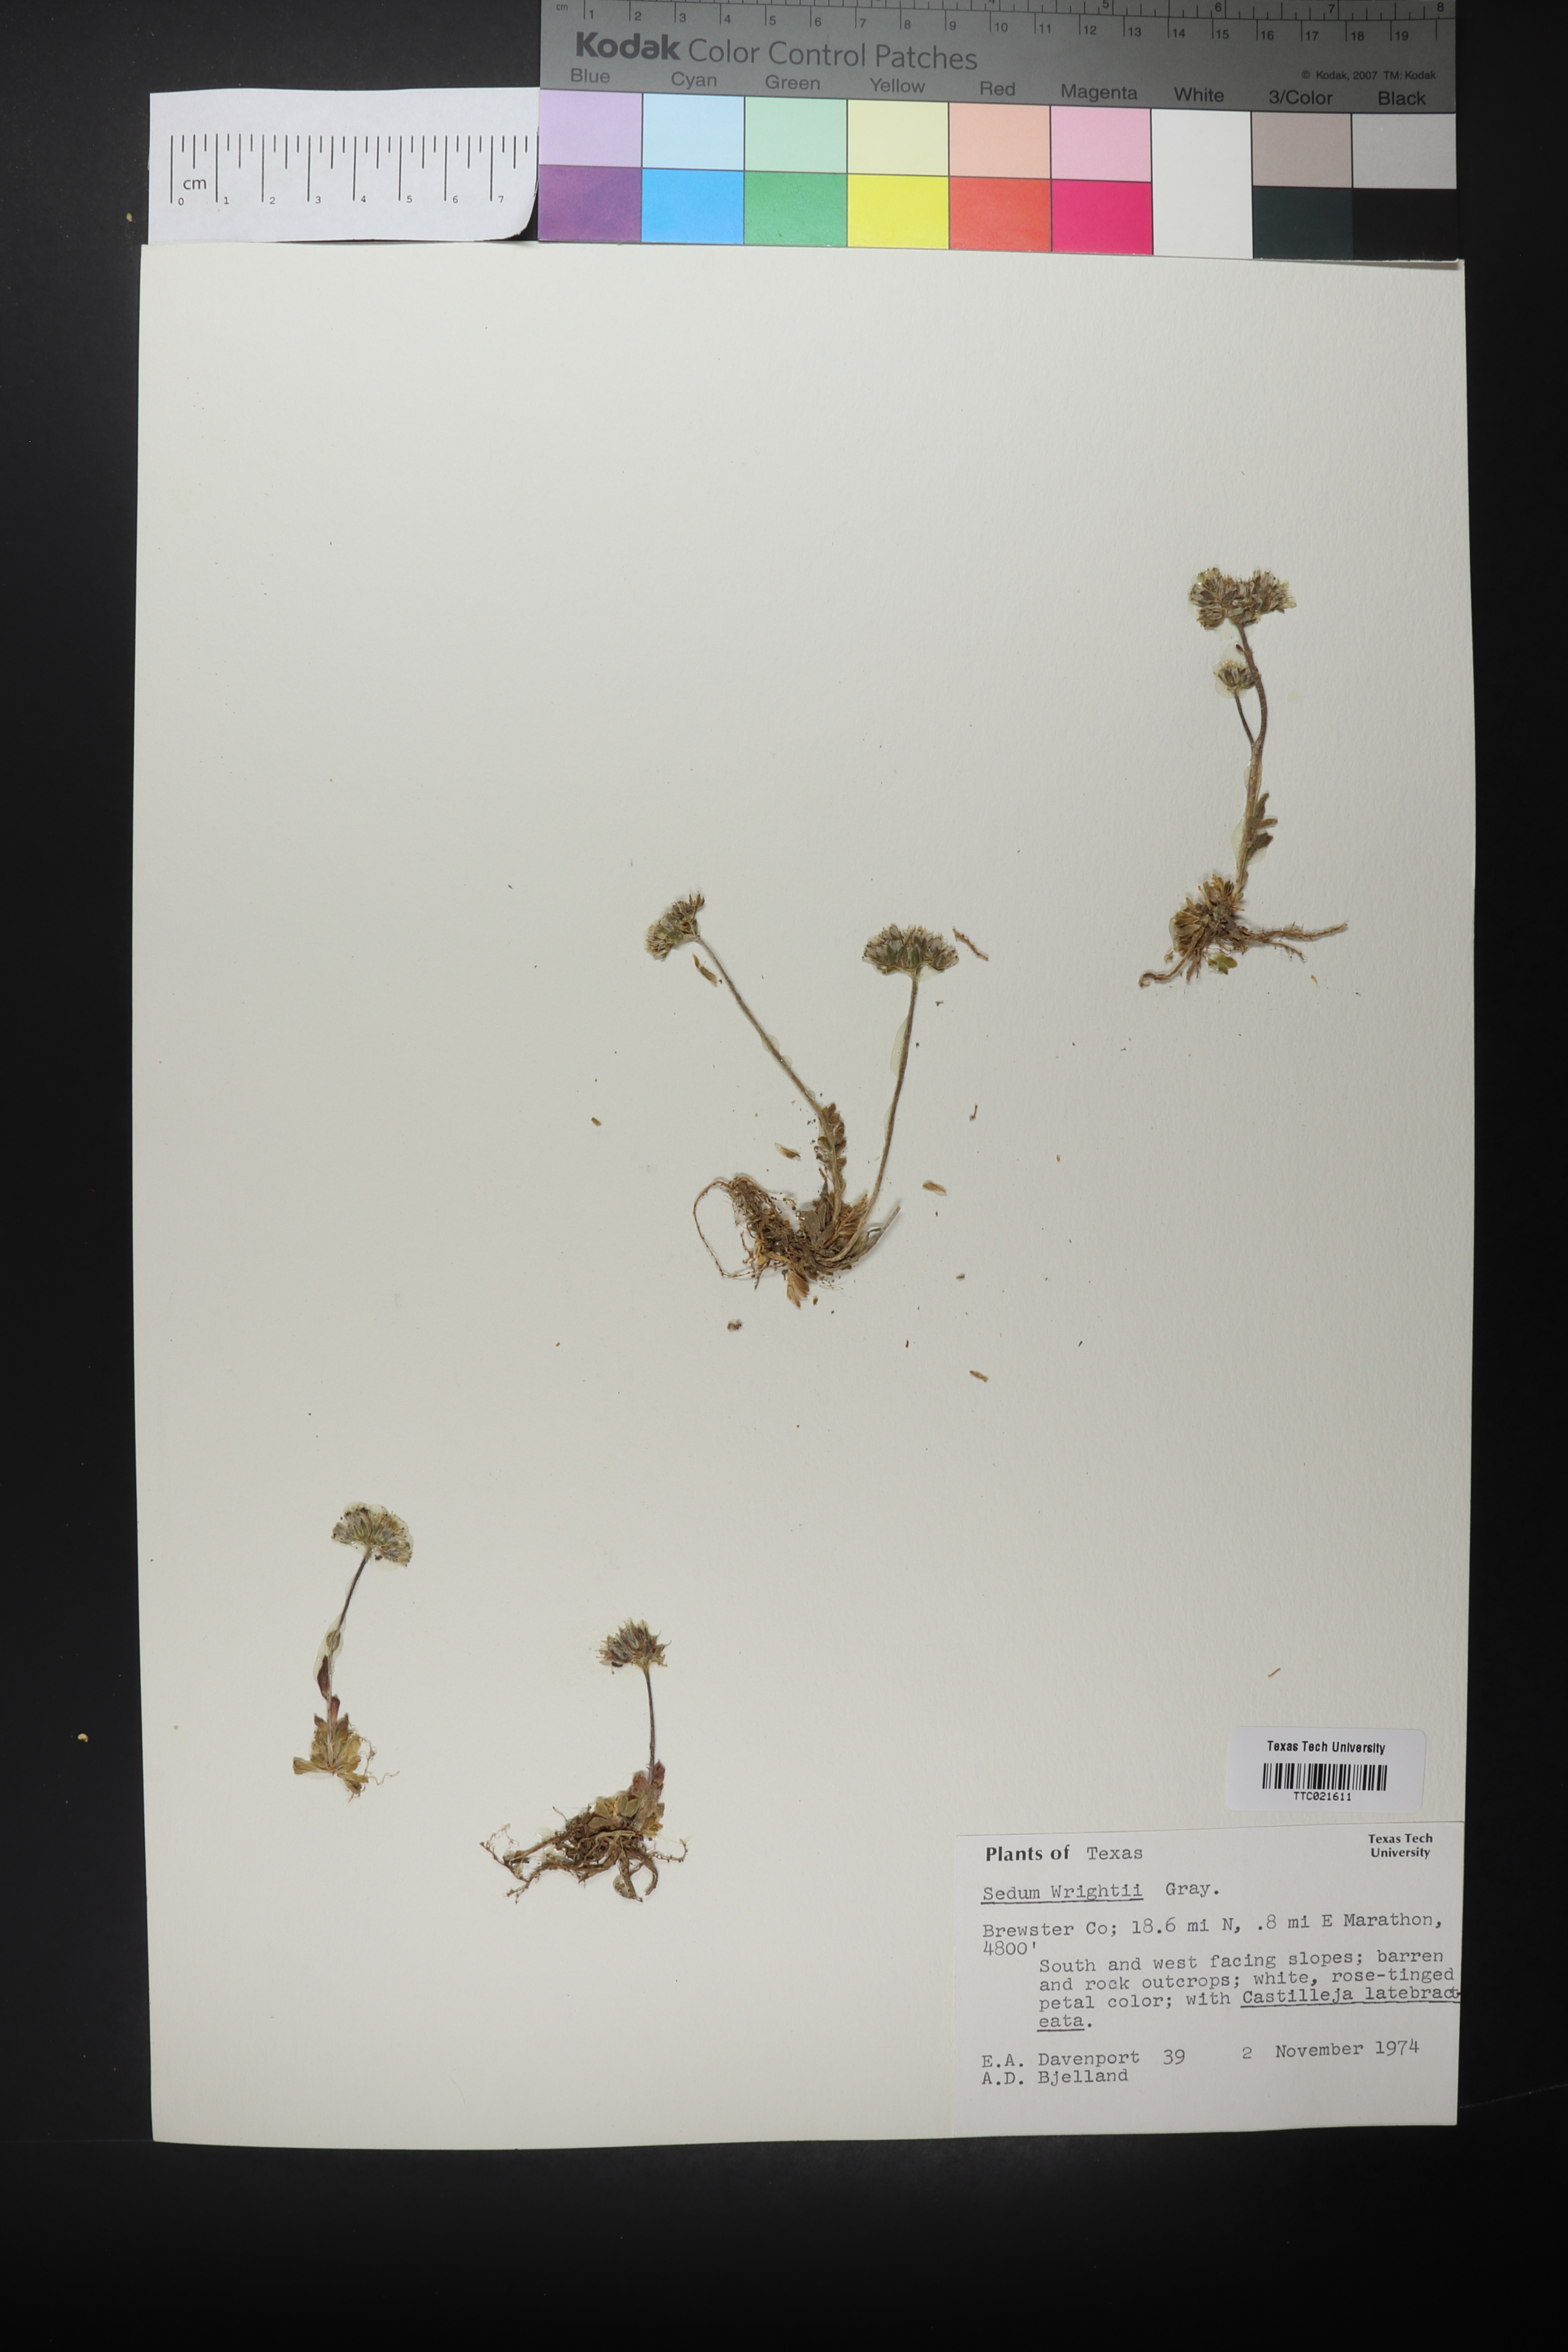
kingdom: Plantae
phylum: Tracheophyta
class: Magnoliopsida
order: Saxifragales
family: Crassulaceae
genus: Sedum
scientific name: Sedum wrightii
